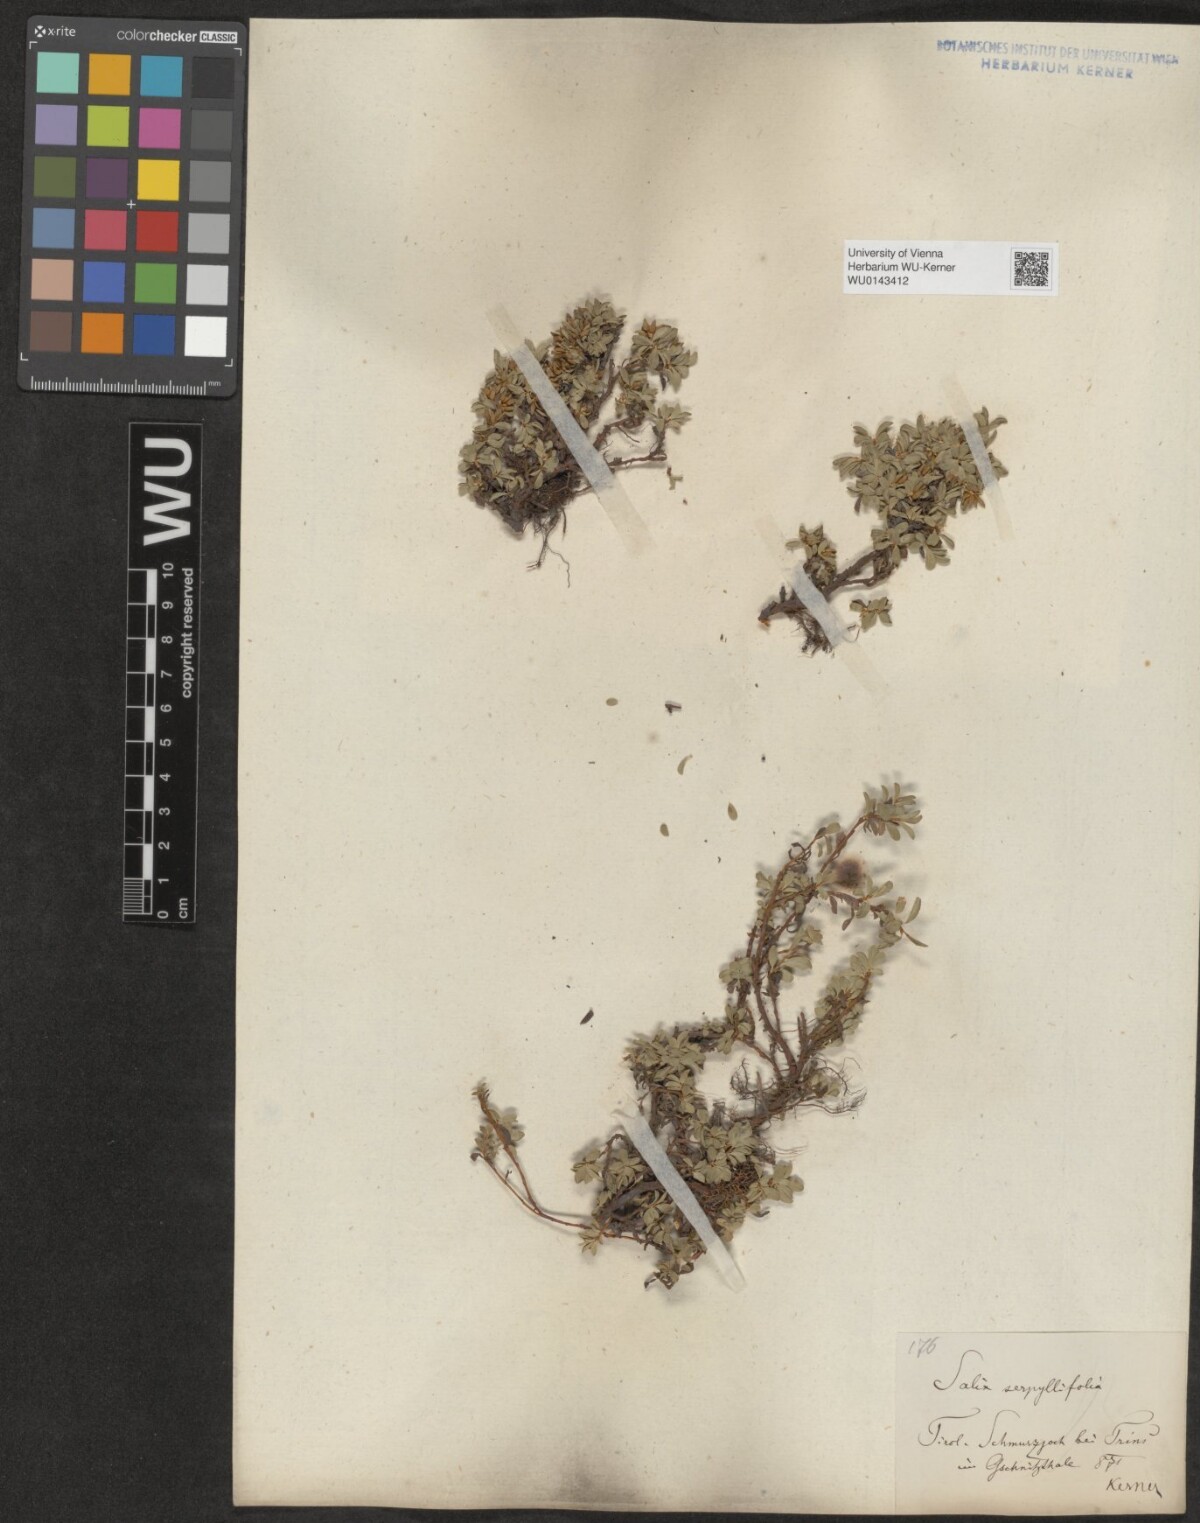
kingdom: Plantae
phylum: Tracheophyta
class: Magnoliopsida
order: Malpighiales
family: Salicaceae
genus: Salix
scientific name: Salix serpillifolia
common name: Thyme-leaf willow
